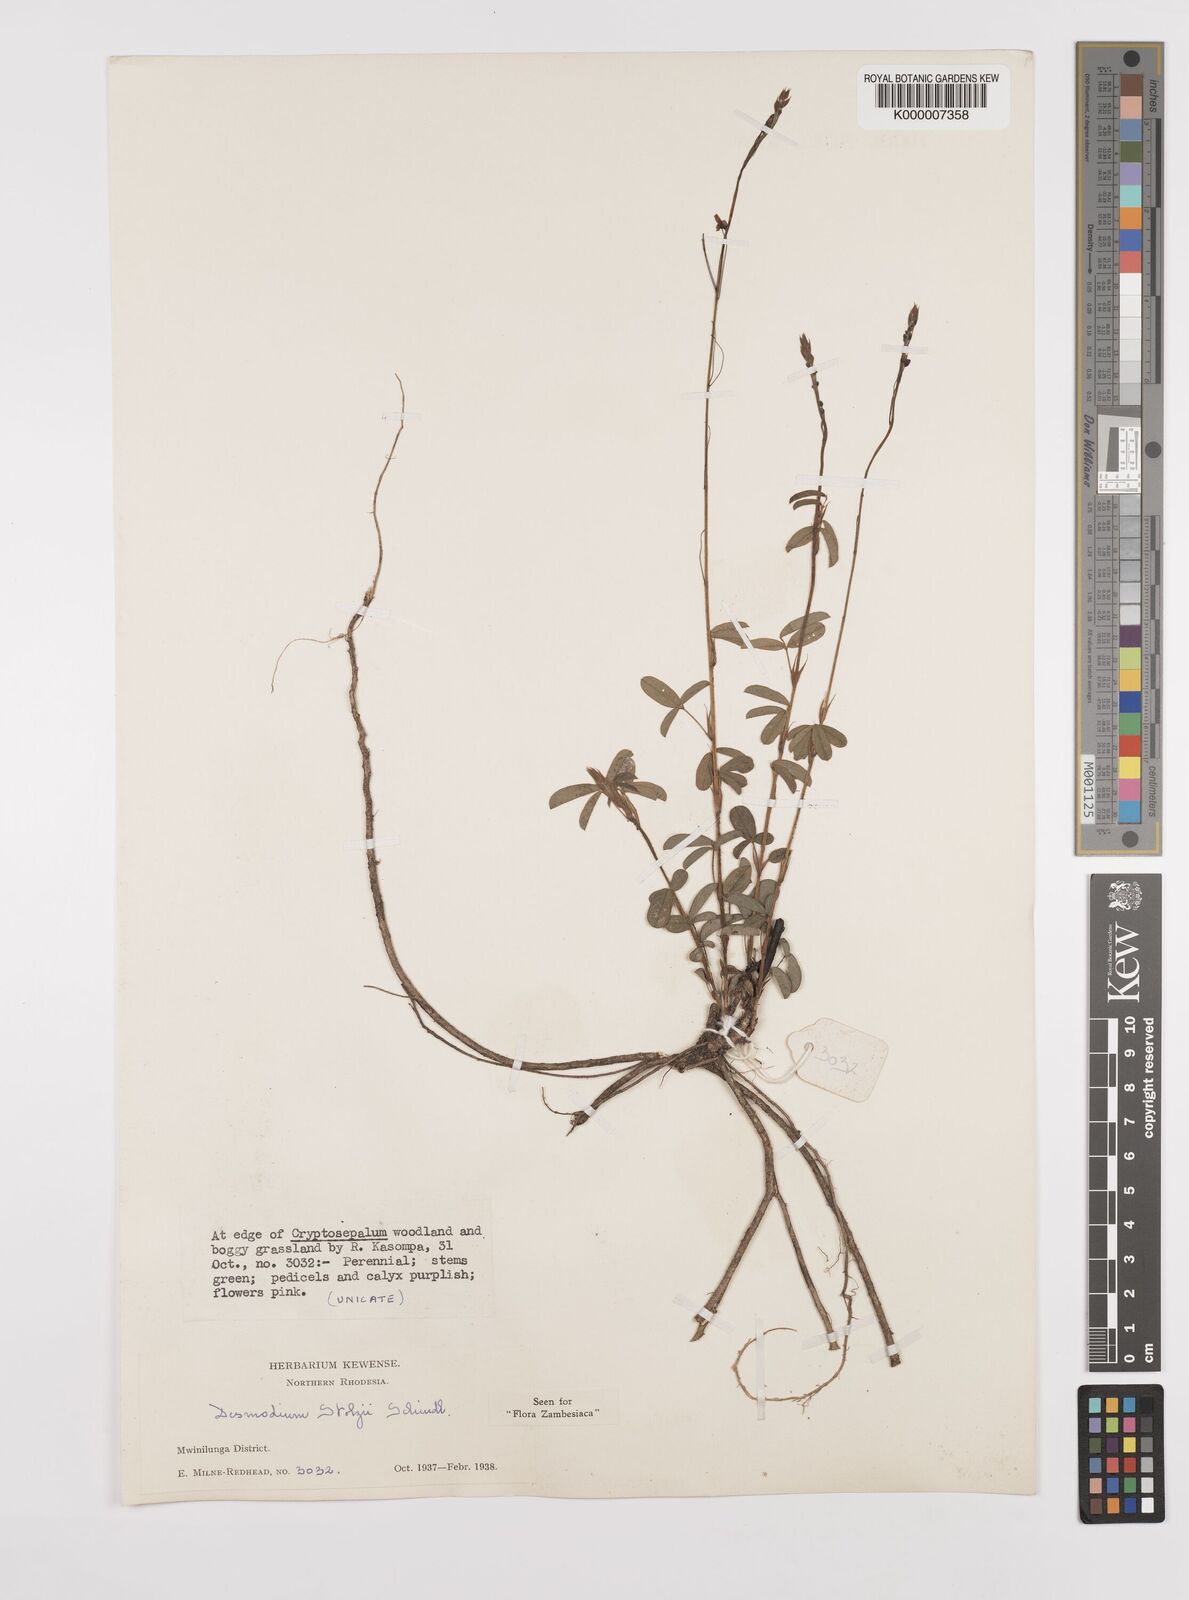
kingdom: Plantae
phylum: Tracheophyta
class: Magnoliopsida
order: Fabales
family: Fabaceae
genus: Grona
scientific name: Grona stolzii
